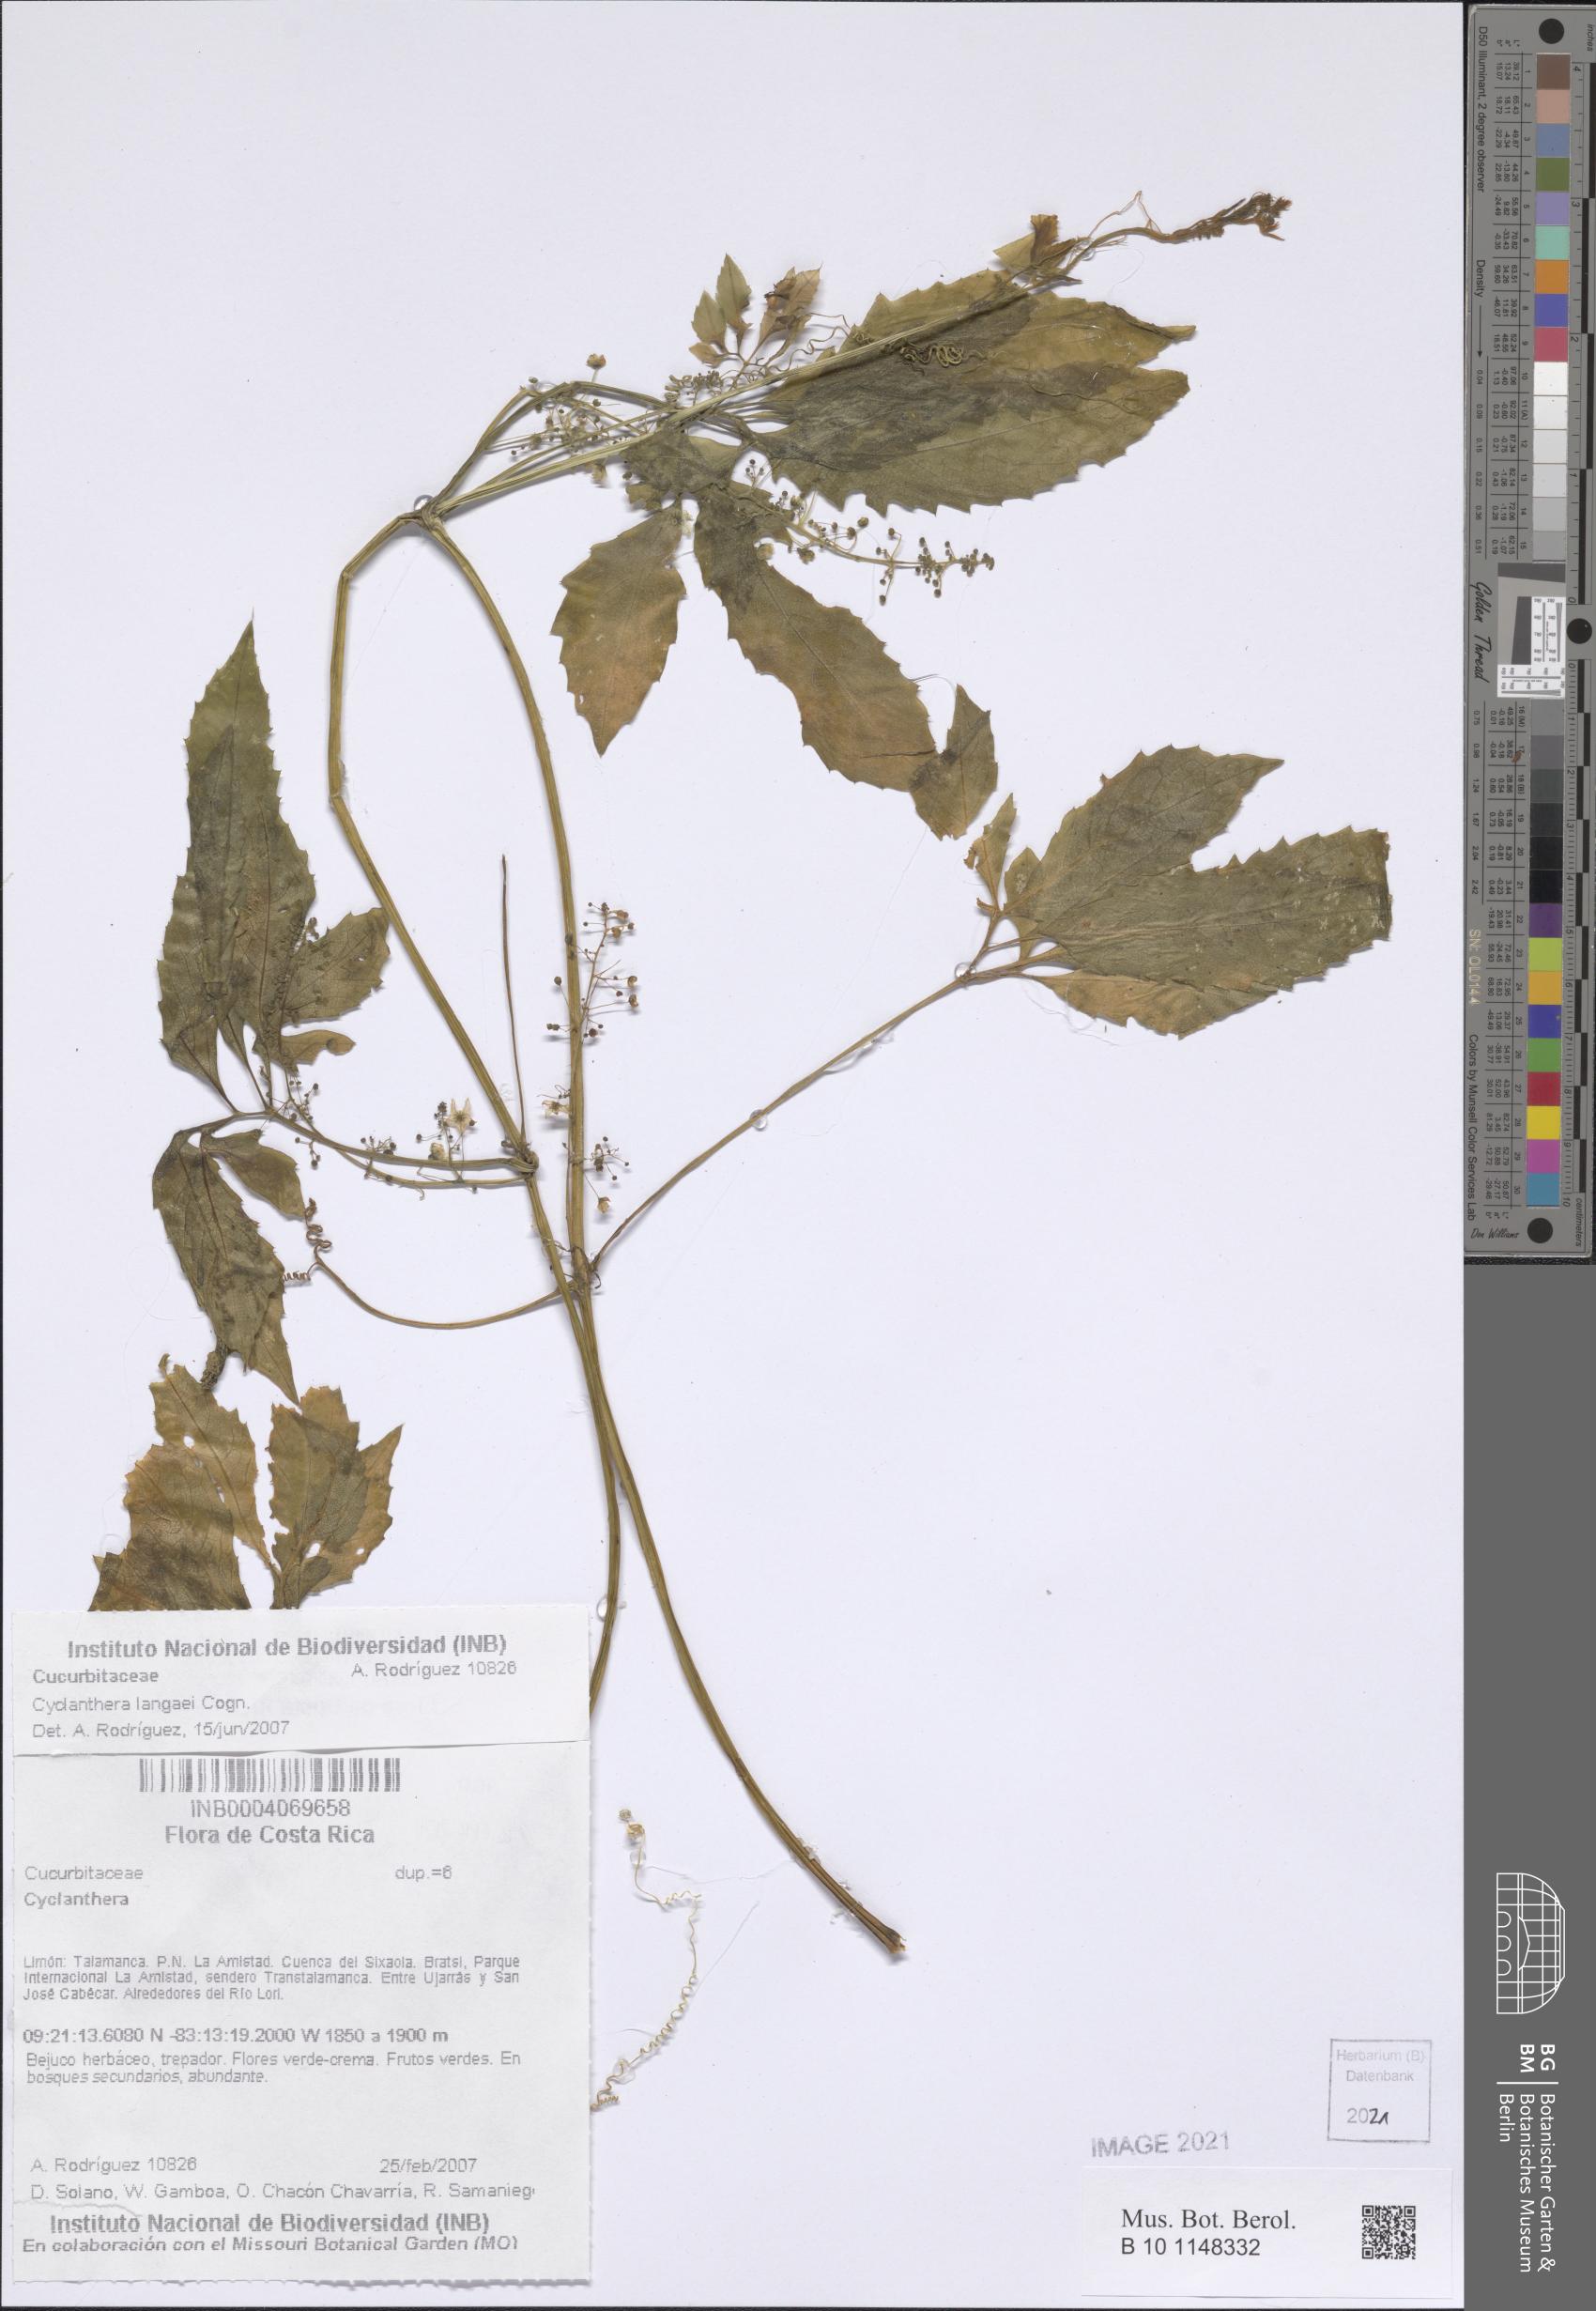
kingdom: Plantae
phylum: Tracheophyta
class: Magnoliopsida
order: Cucurbitales
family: Cucurbitaceae
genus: Cyclanthera
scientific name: Cyclanthera langaei
